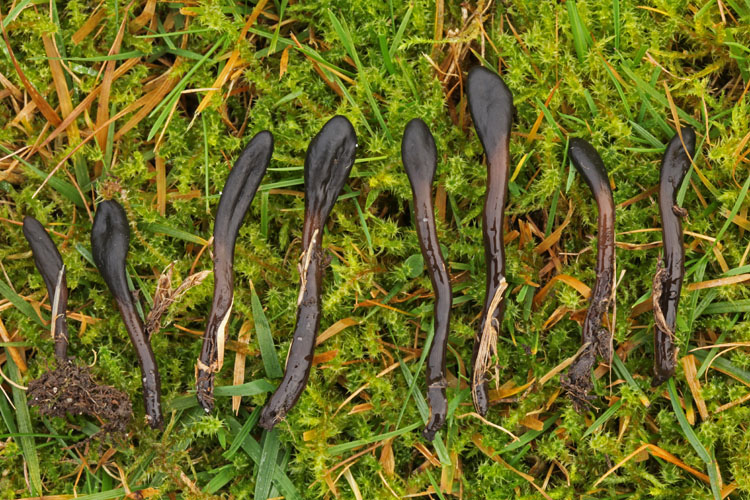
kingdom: Fungi
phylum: Ascomycota
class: Geoglossomycetes
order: Geoglossales
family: Geoglossaceae
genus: Glutinoglossum
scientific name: Glutinoglossum glutinosum
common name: slimet jordtunge
